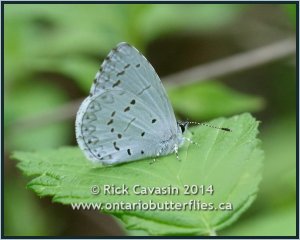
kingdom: Animalia
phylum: Arthropoda
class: Insecta
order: Lepidoptera
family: Lycaenidae
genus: Celastrina
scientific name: Celastrina
